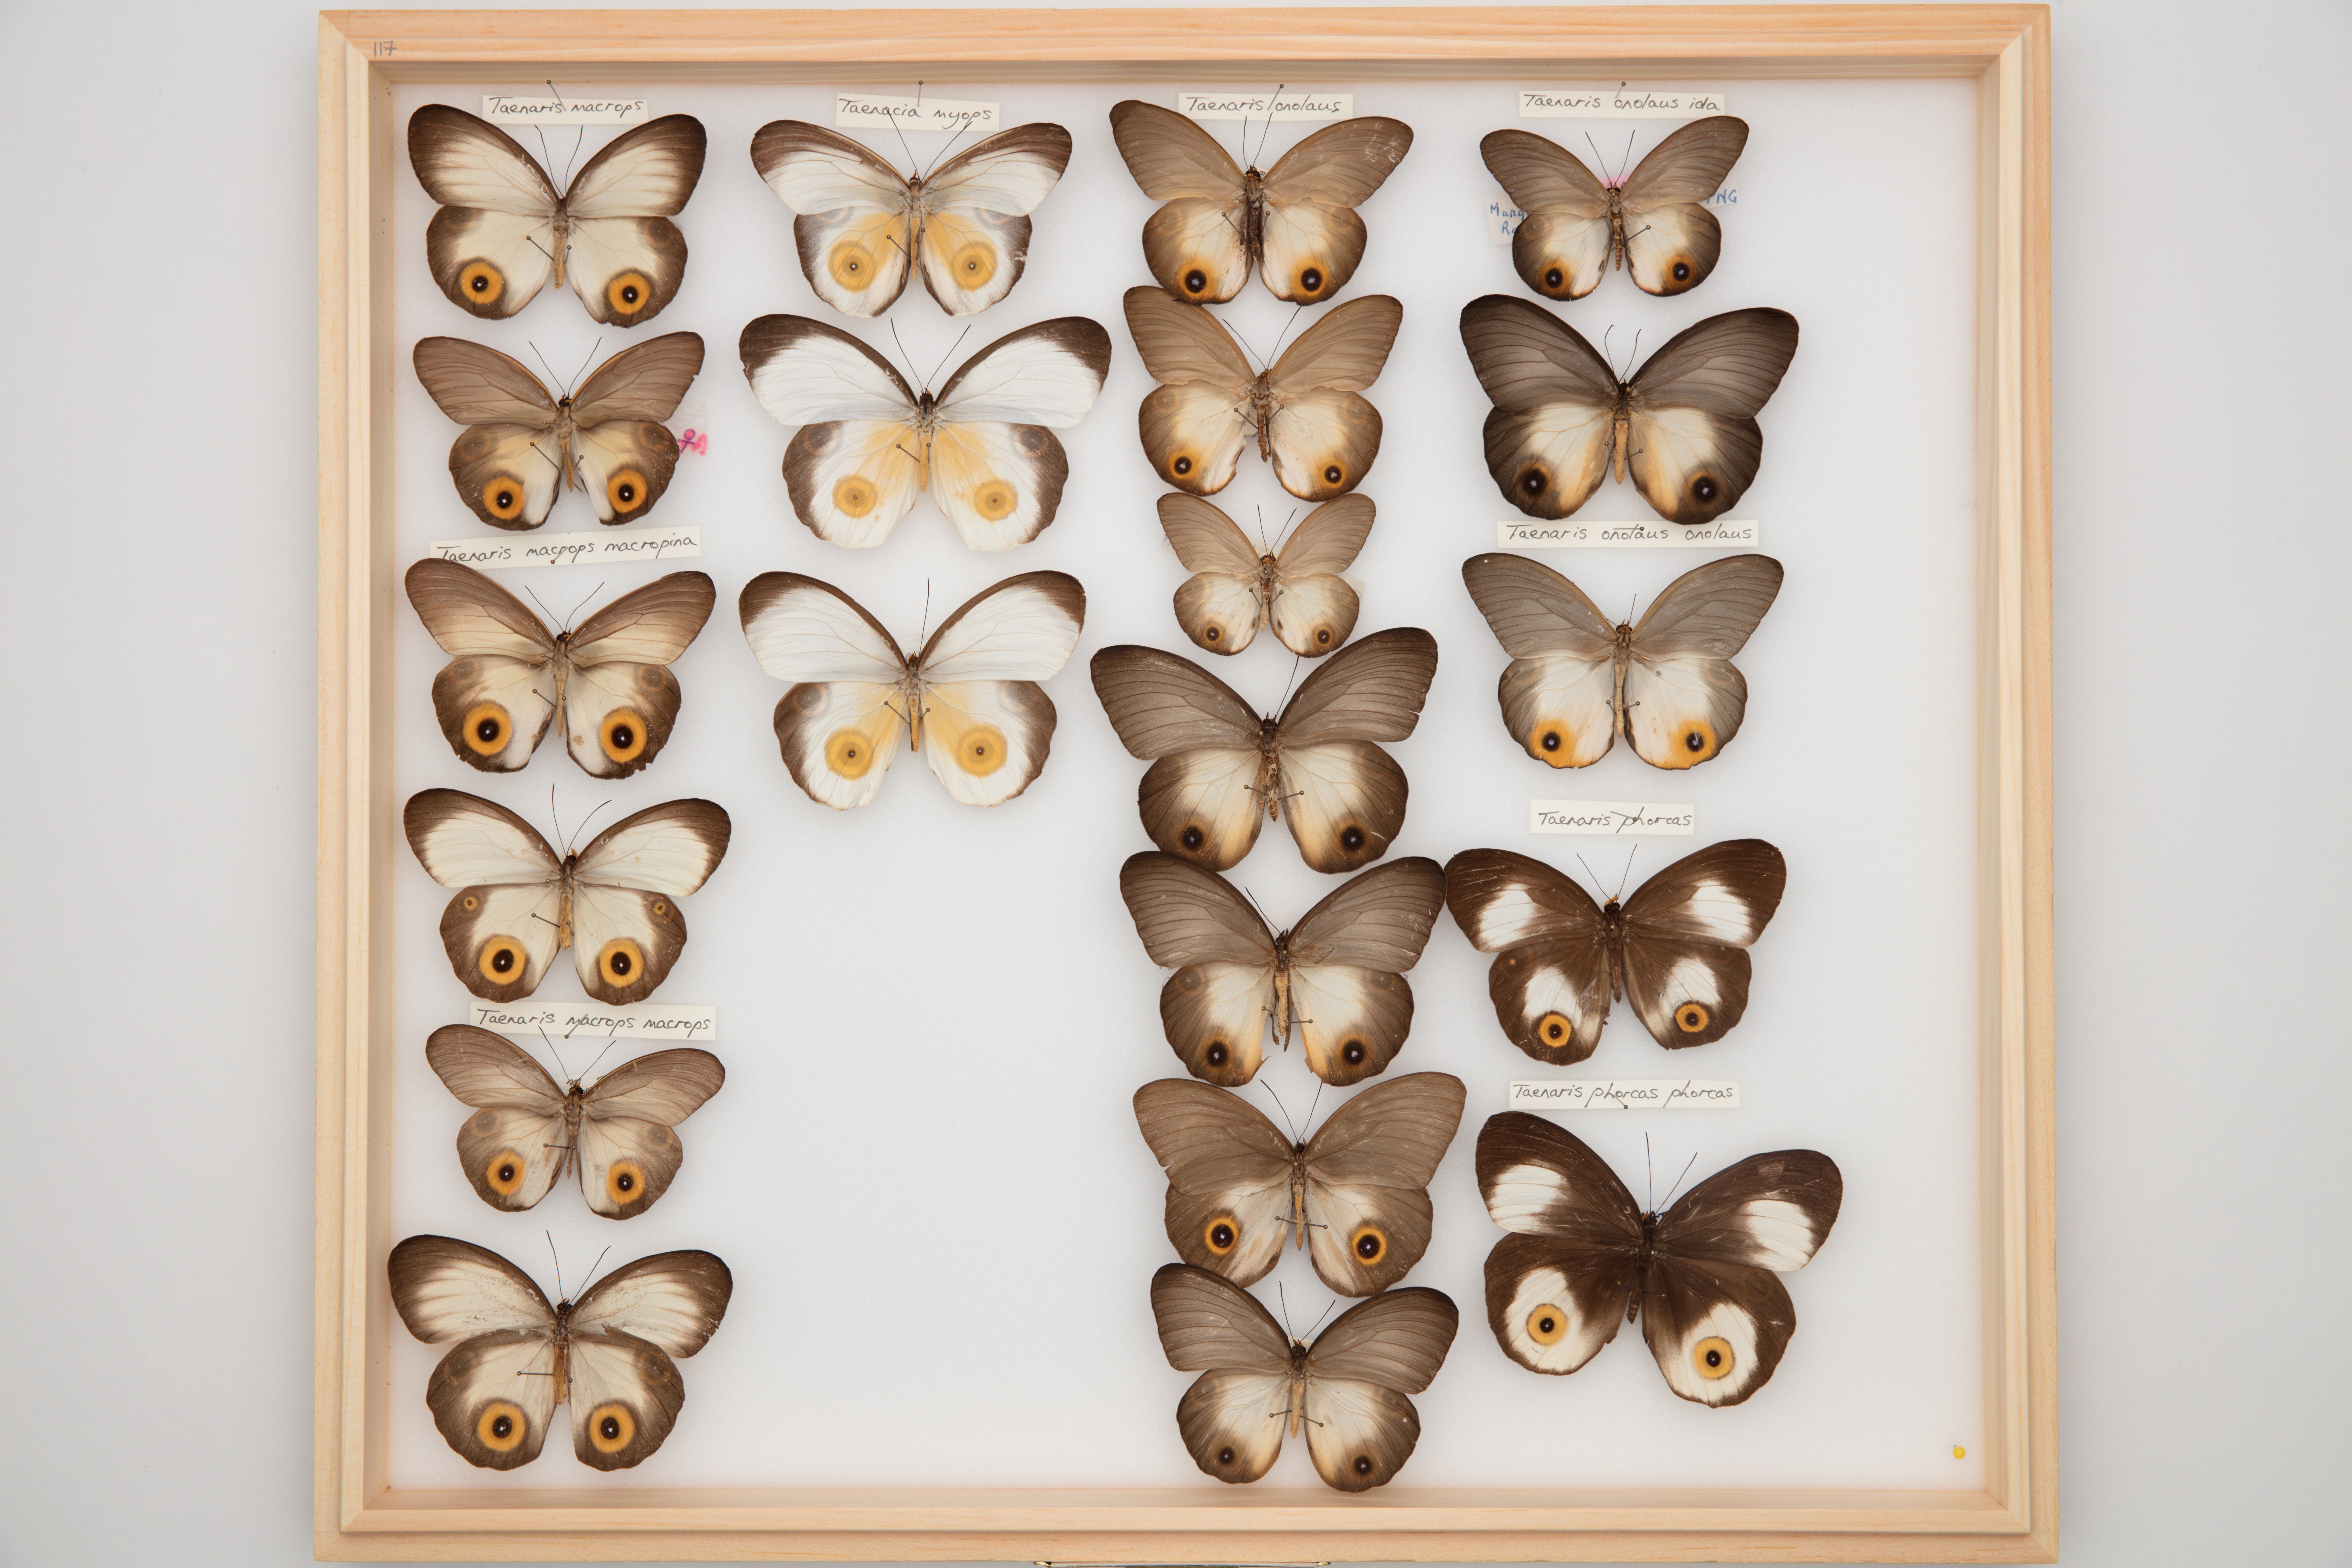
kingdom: Animalia
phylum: Arthropoda
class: Insecta
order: Lepidoptera
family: Nymphalidae
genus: Taenaris
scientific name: Taenaris myops
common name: One-eyed owl
